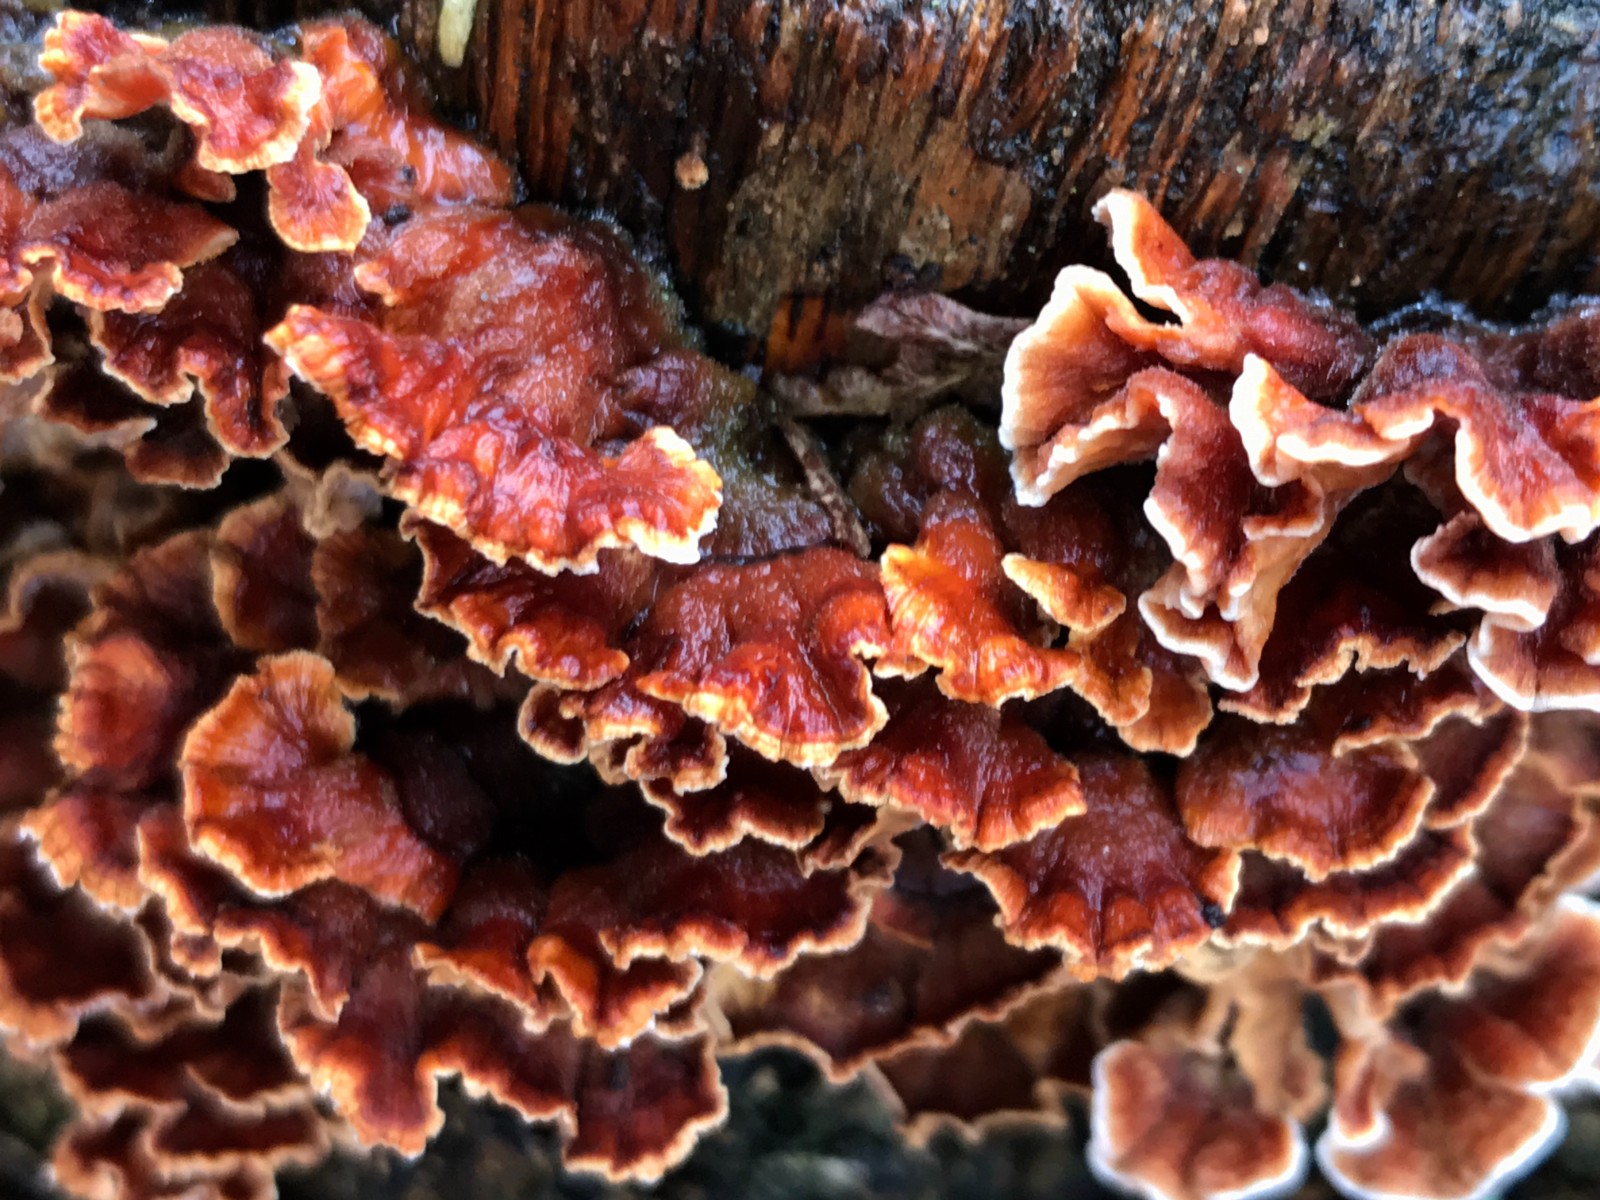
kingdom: Fungi
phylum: Basidiomycota
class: Agaricomycetes
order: Russulales
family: Stereaceae
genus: Stereum
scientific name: Stereum hirsutum
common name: håret lædersvamp
